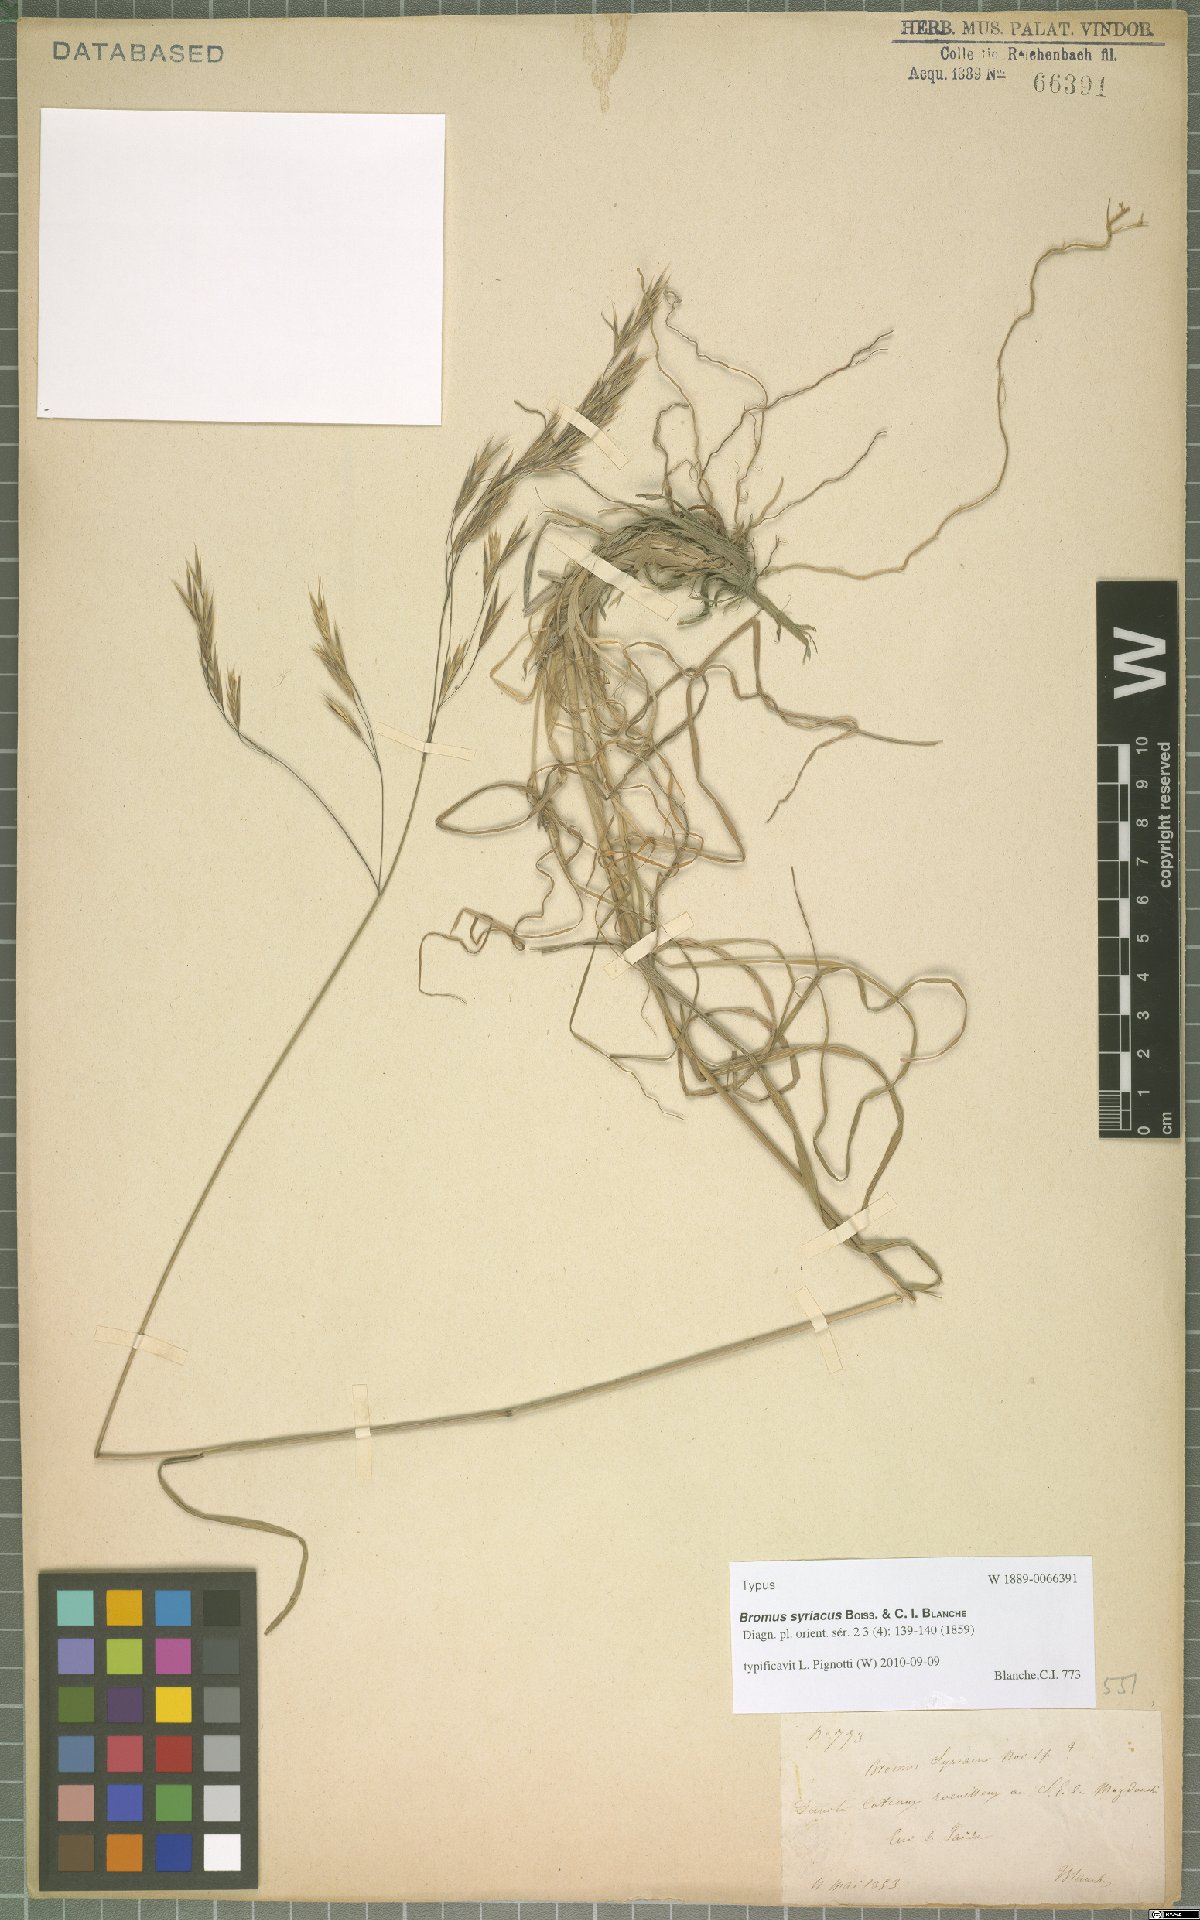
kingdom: Plantae
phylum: Tracheophyta
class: Liliopsida
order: Poales
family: Poaceae
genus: Bromus
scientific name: Bromus syriacus
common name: Syrian brome
